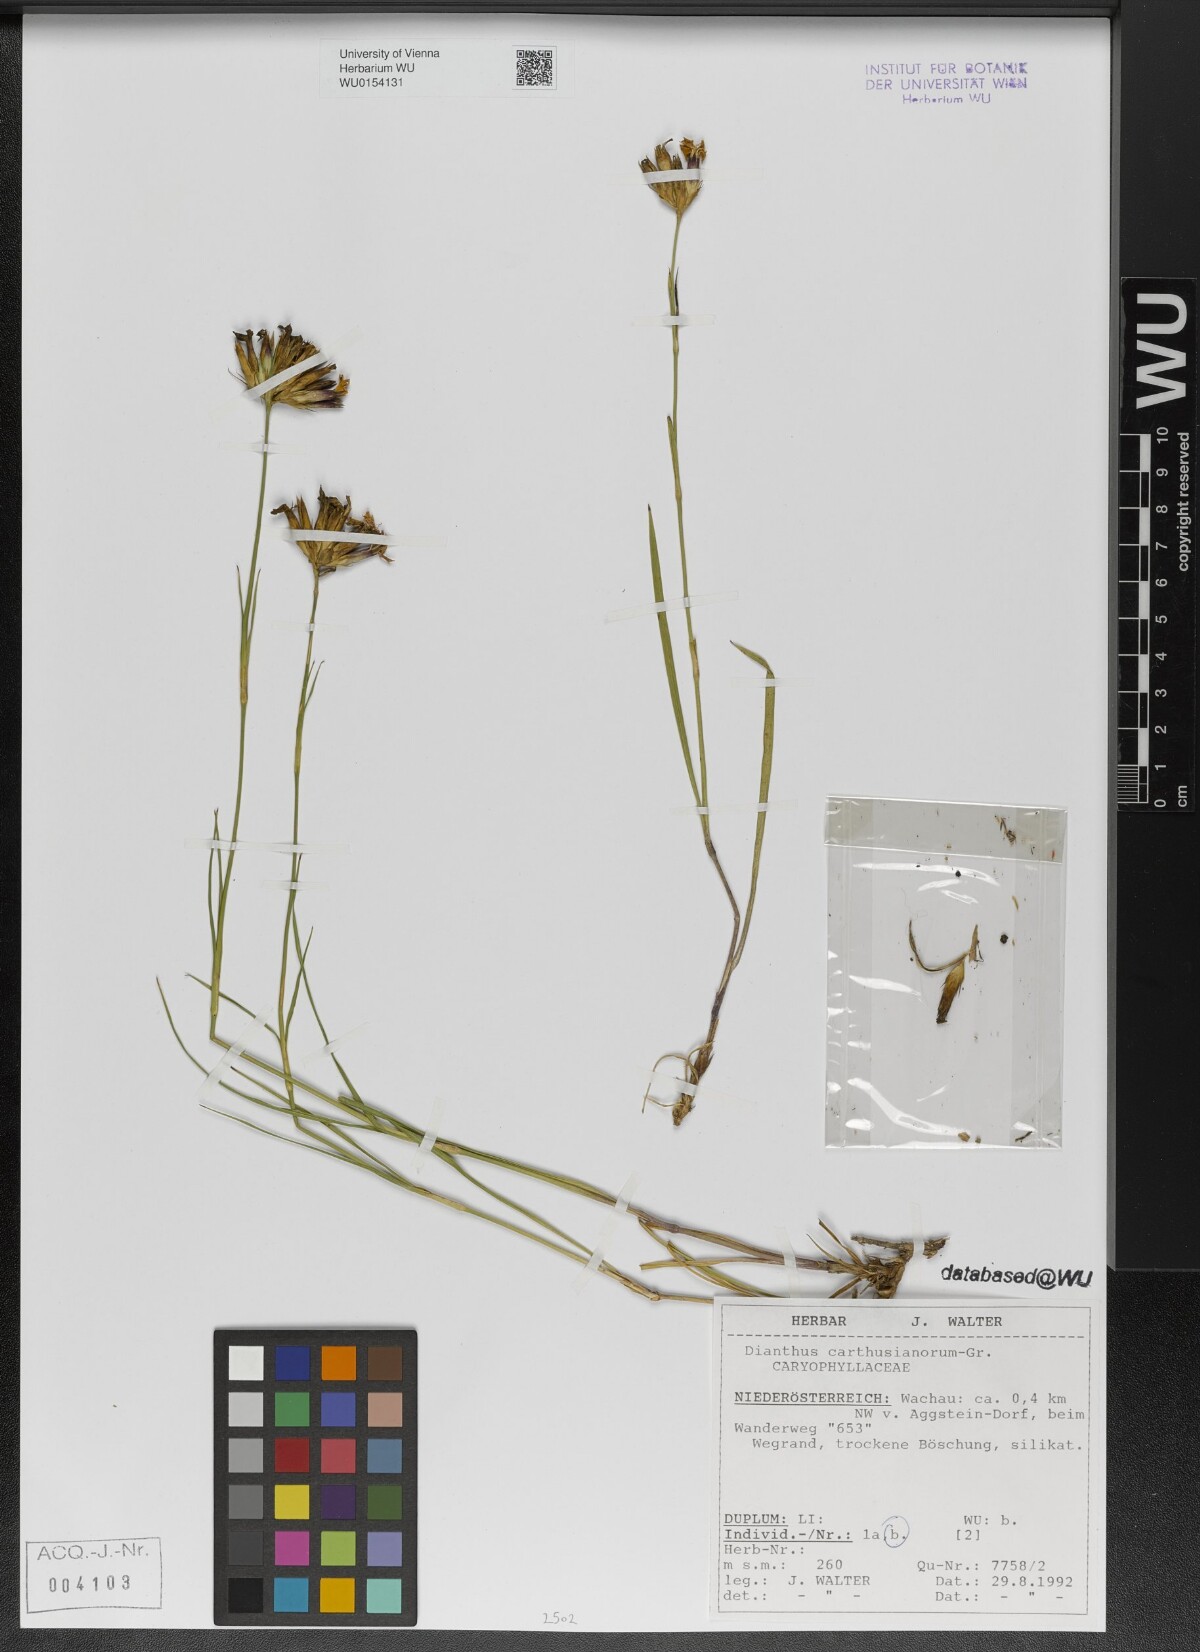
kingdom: Plantae
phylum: Tracheophyta
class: Magnoliopsida
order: Caryophyllales
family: Caryophyllaceae
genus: Dianthus
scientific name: Dianthus carthusianorum
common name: Carthusian pink
